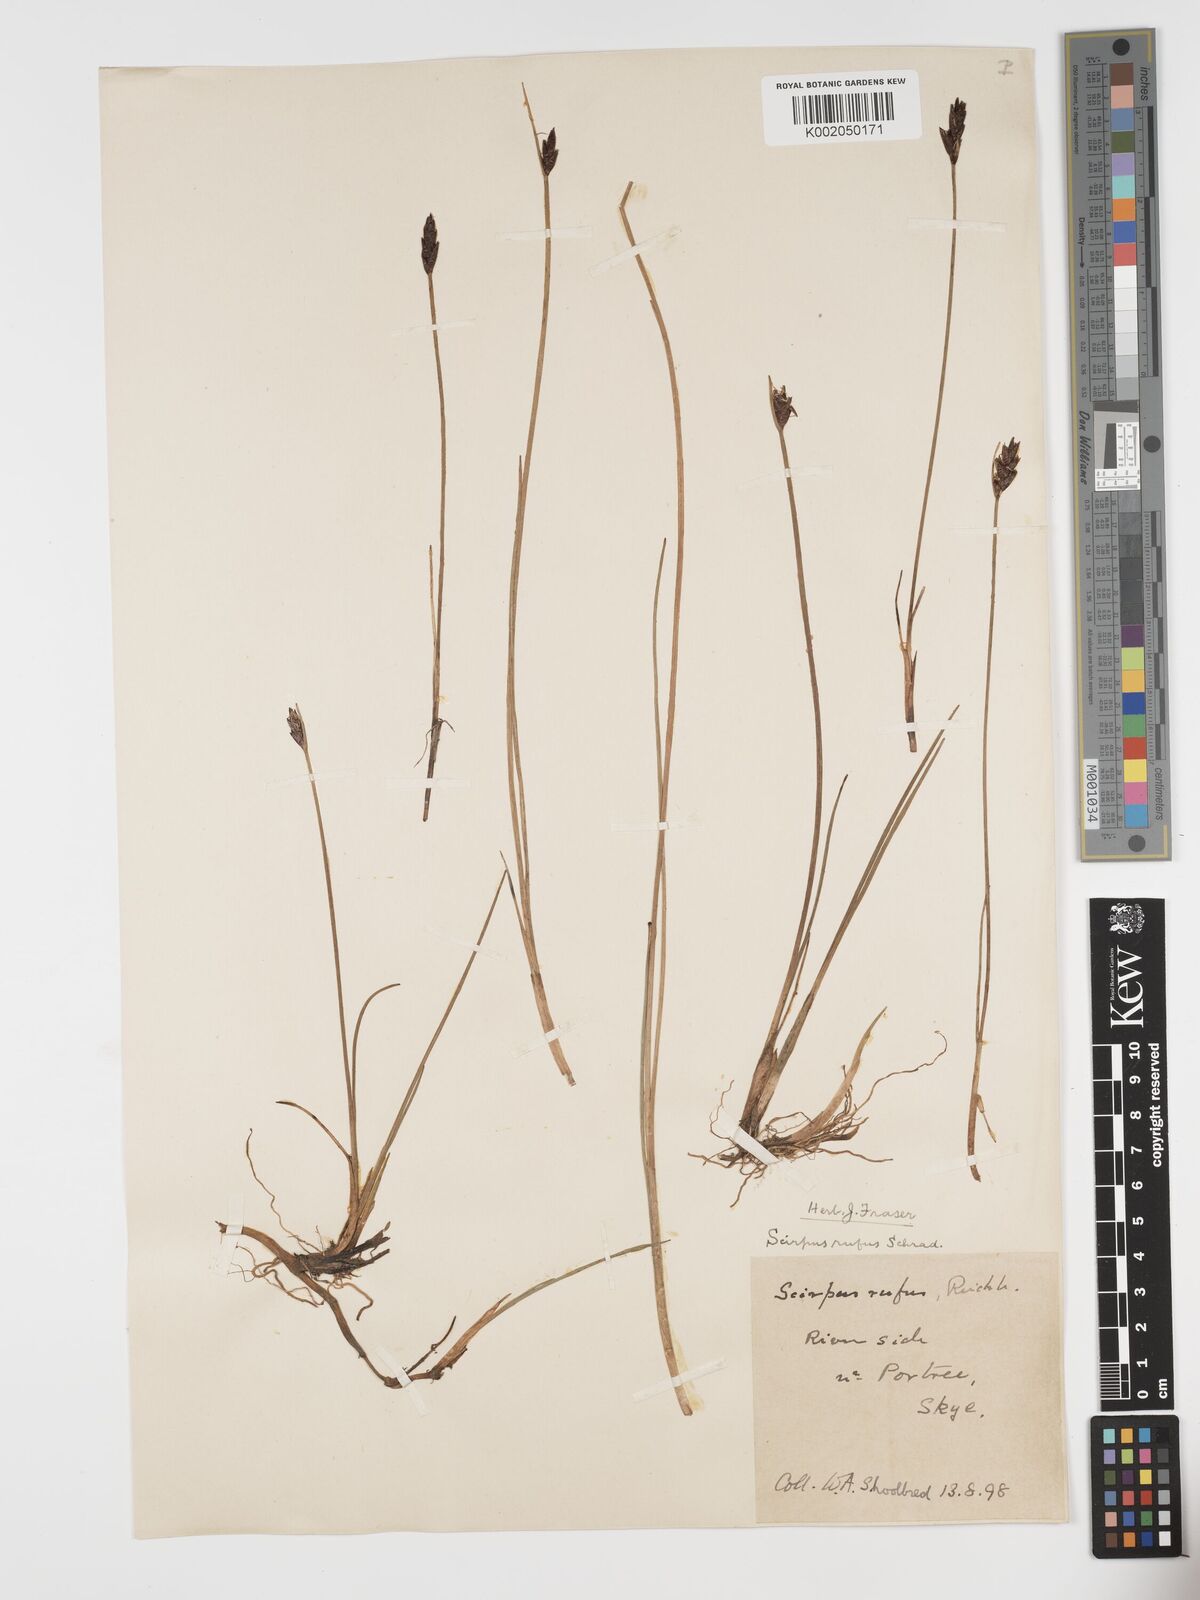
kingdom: Plantae
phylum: Tracheophyta
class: Liliopsida
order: Poales
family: Cyperaceae
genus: Blysmus
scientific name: Blysmus rufus
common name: Saltmarsh flat-sedge
